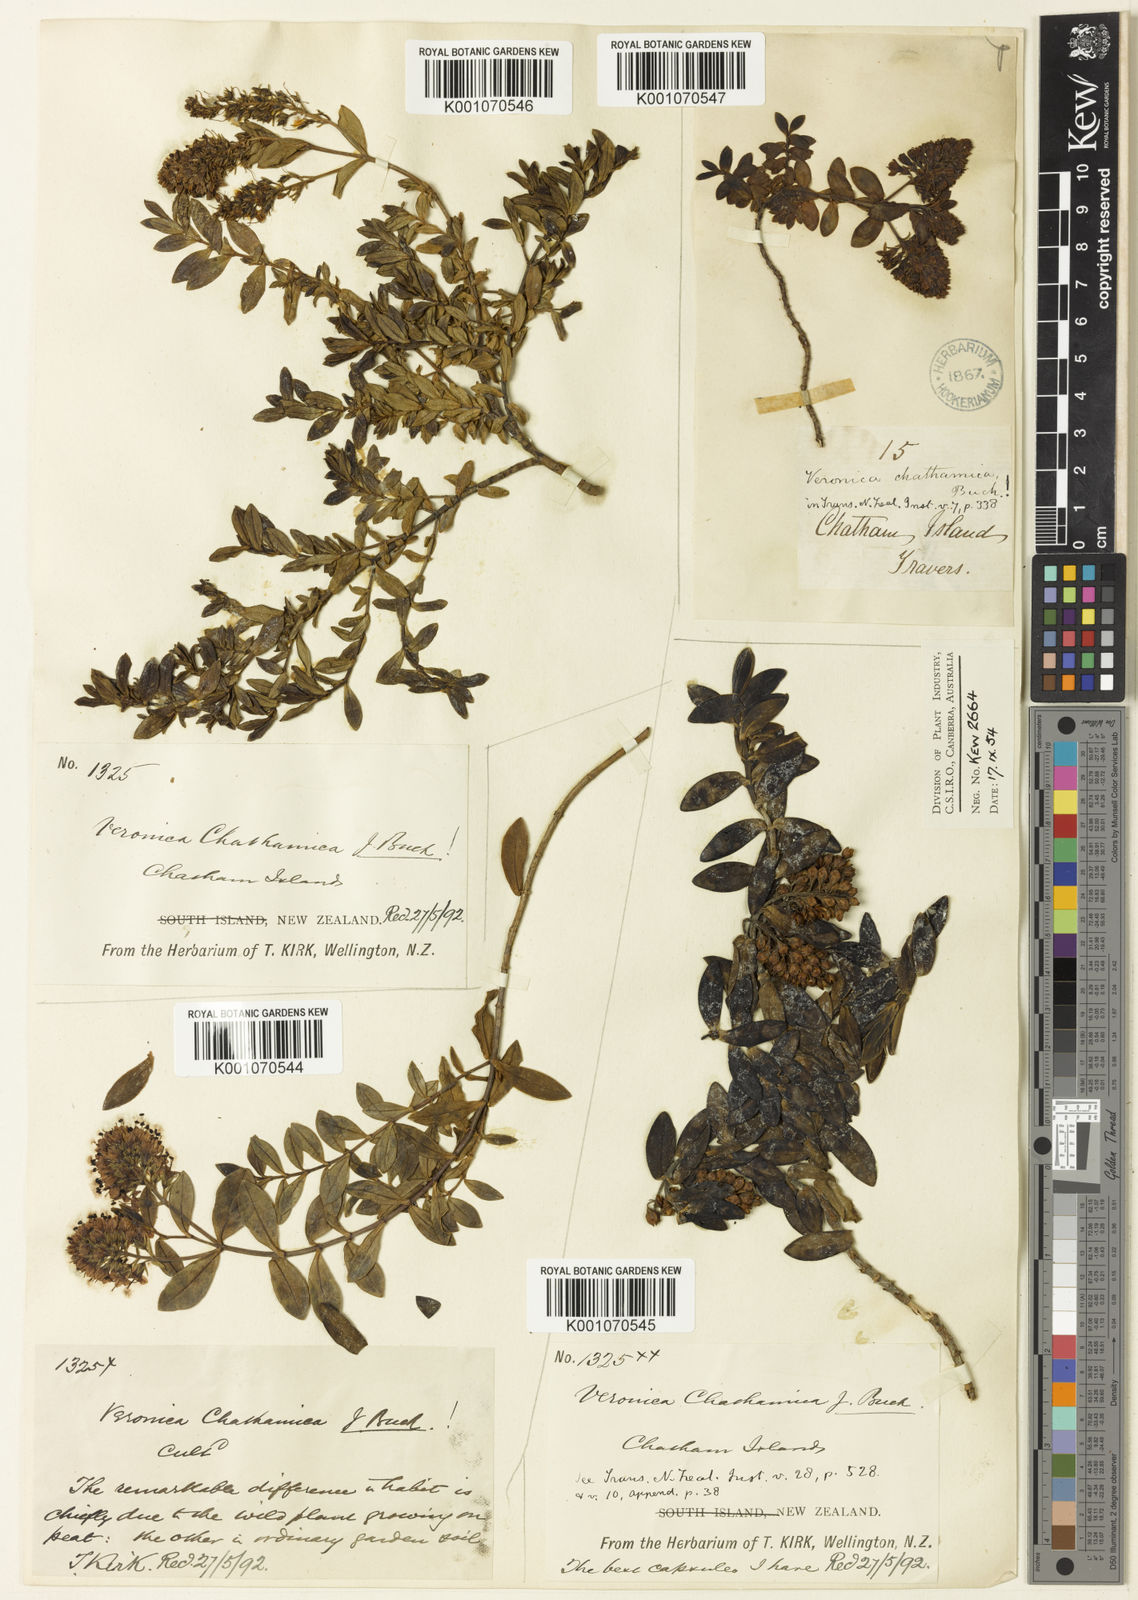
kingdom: Plantae
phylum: Tracheophyta
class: Magnoliopsida
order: Lamiales
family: Plantaginaceae
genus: Veronica
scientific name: Veronica chathamica
